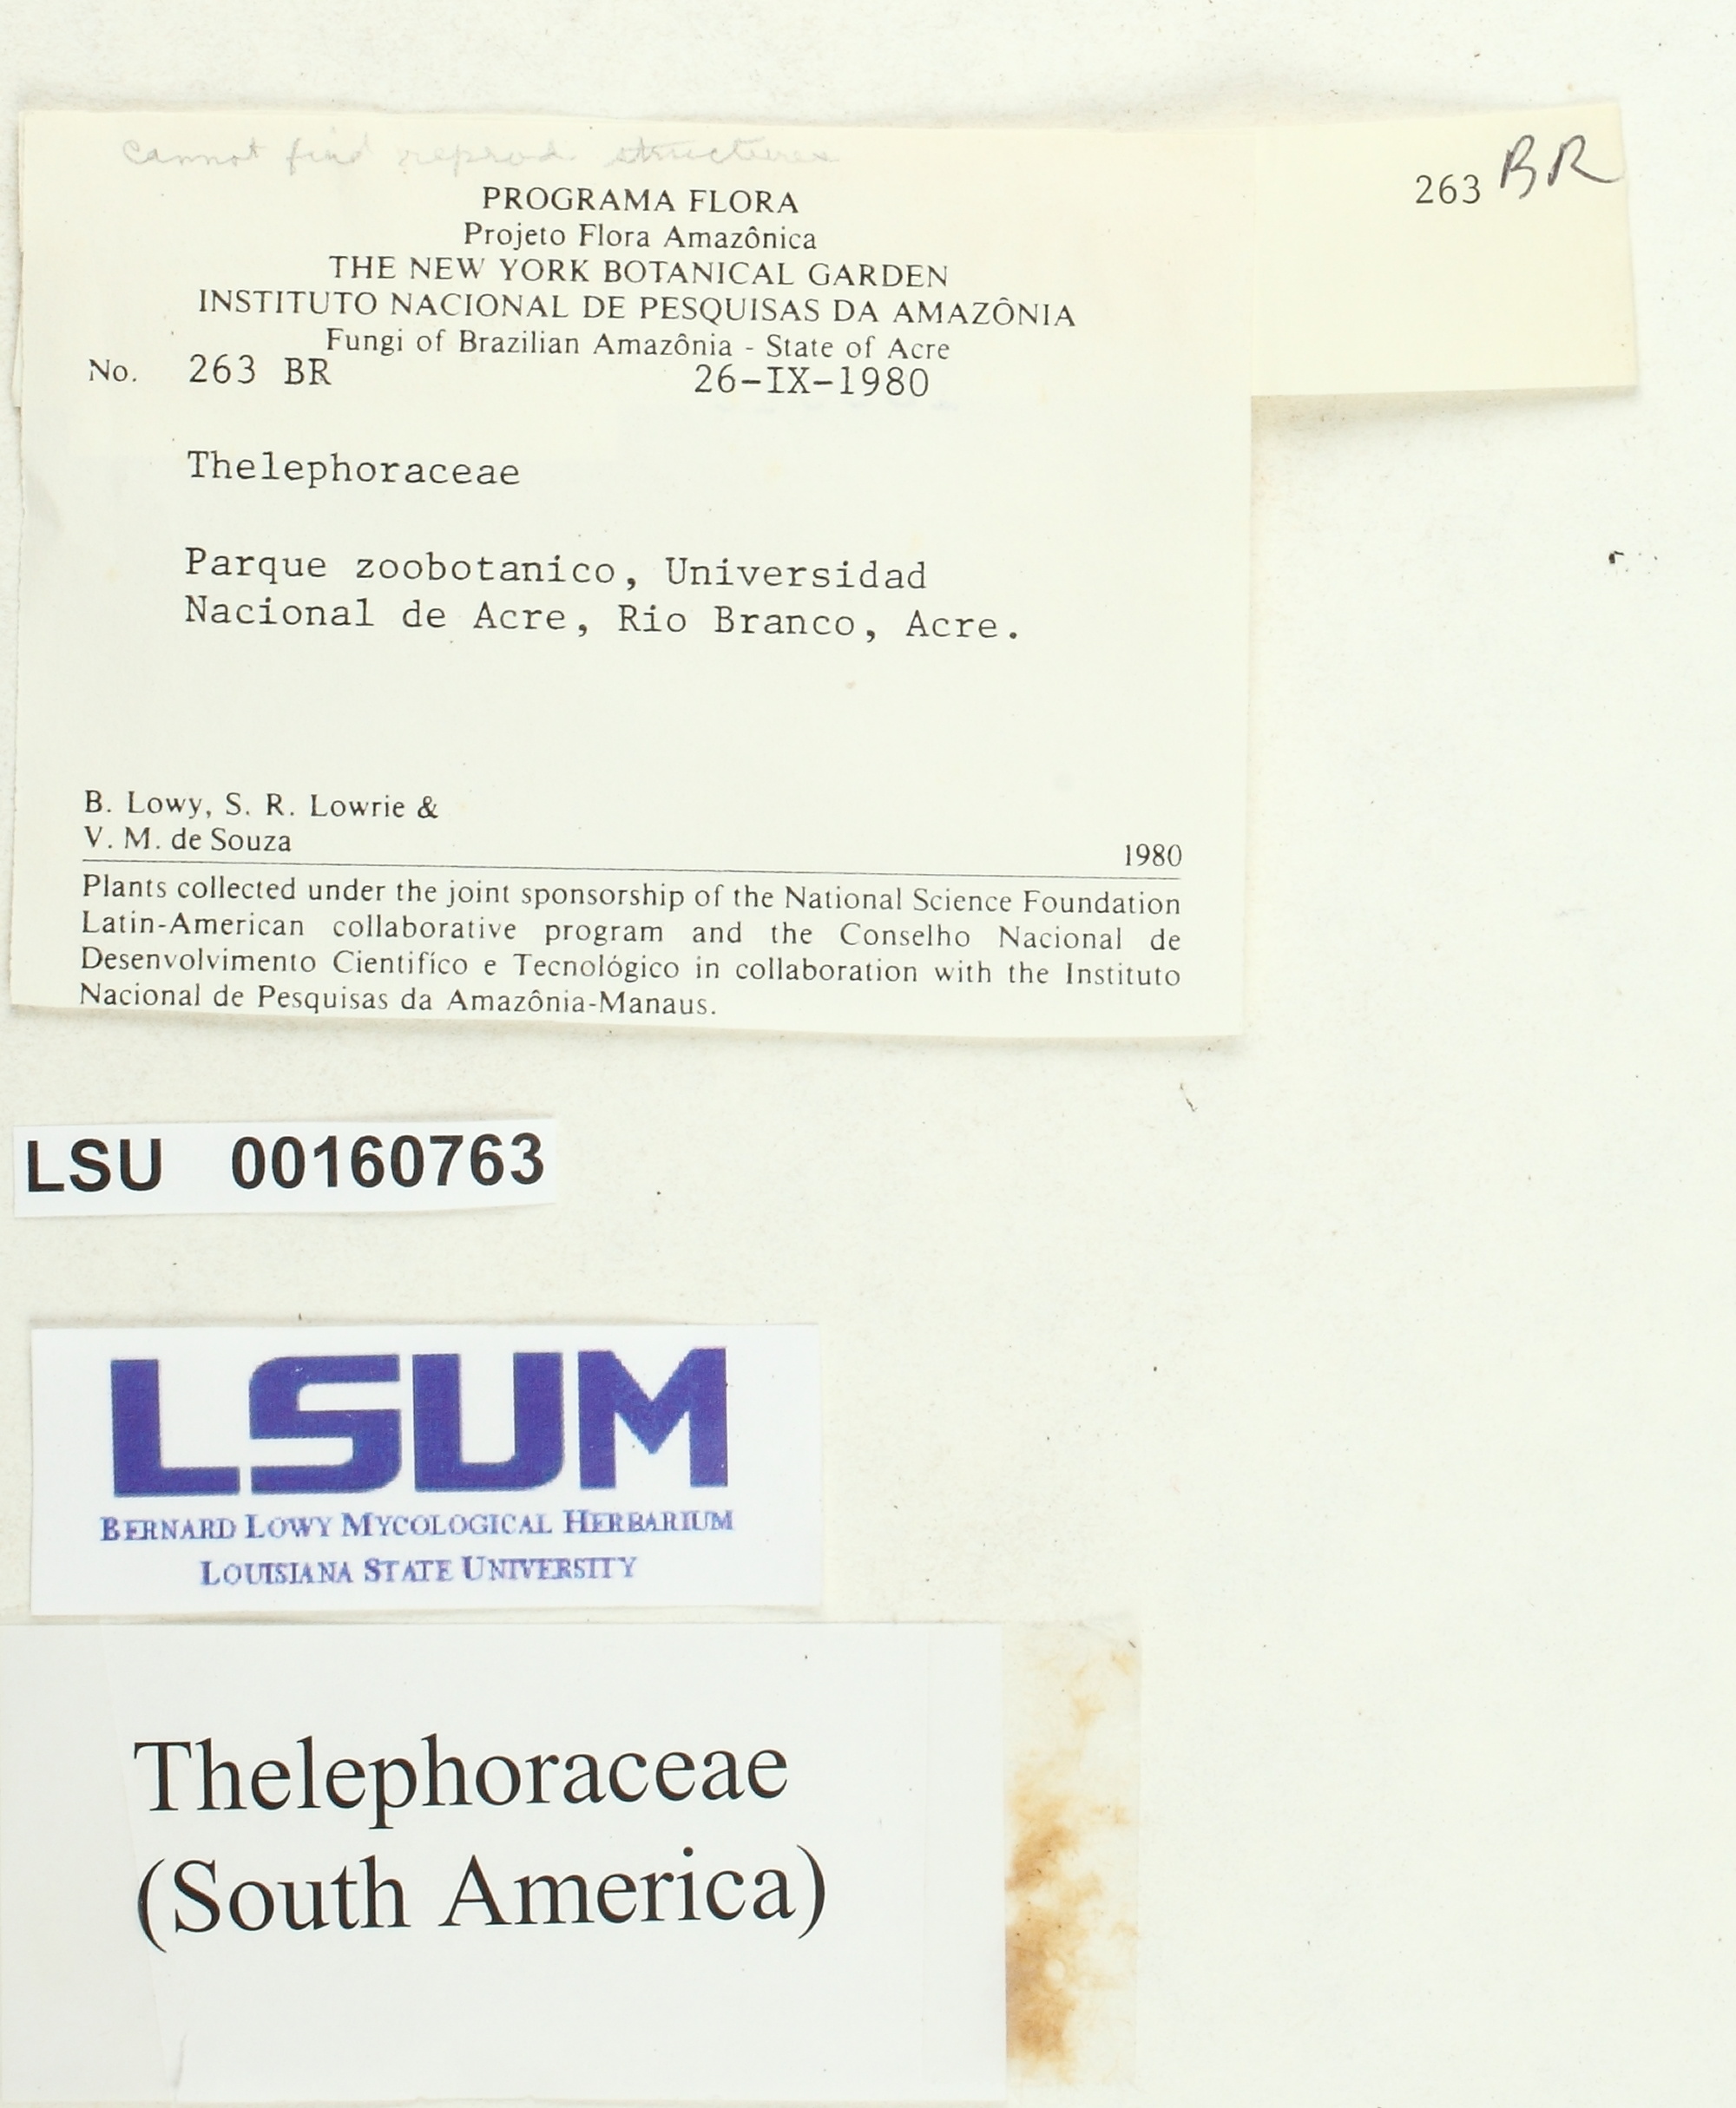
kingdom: Fungi
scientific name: Fungi
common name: Fungi
